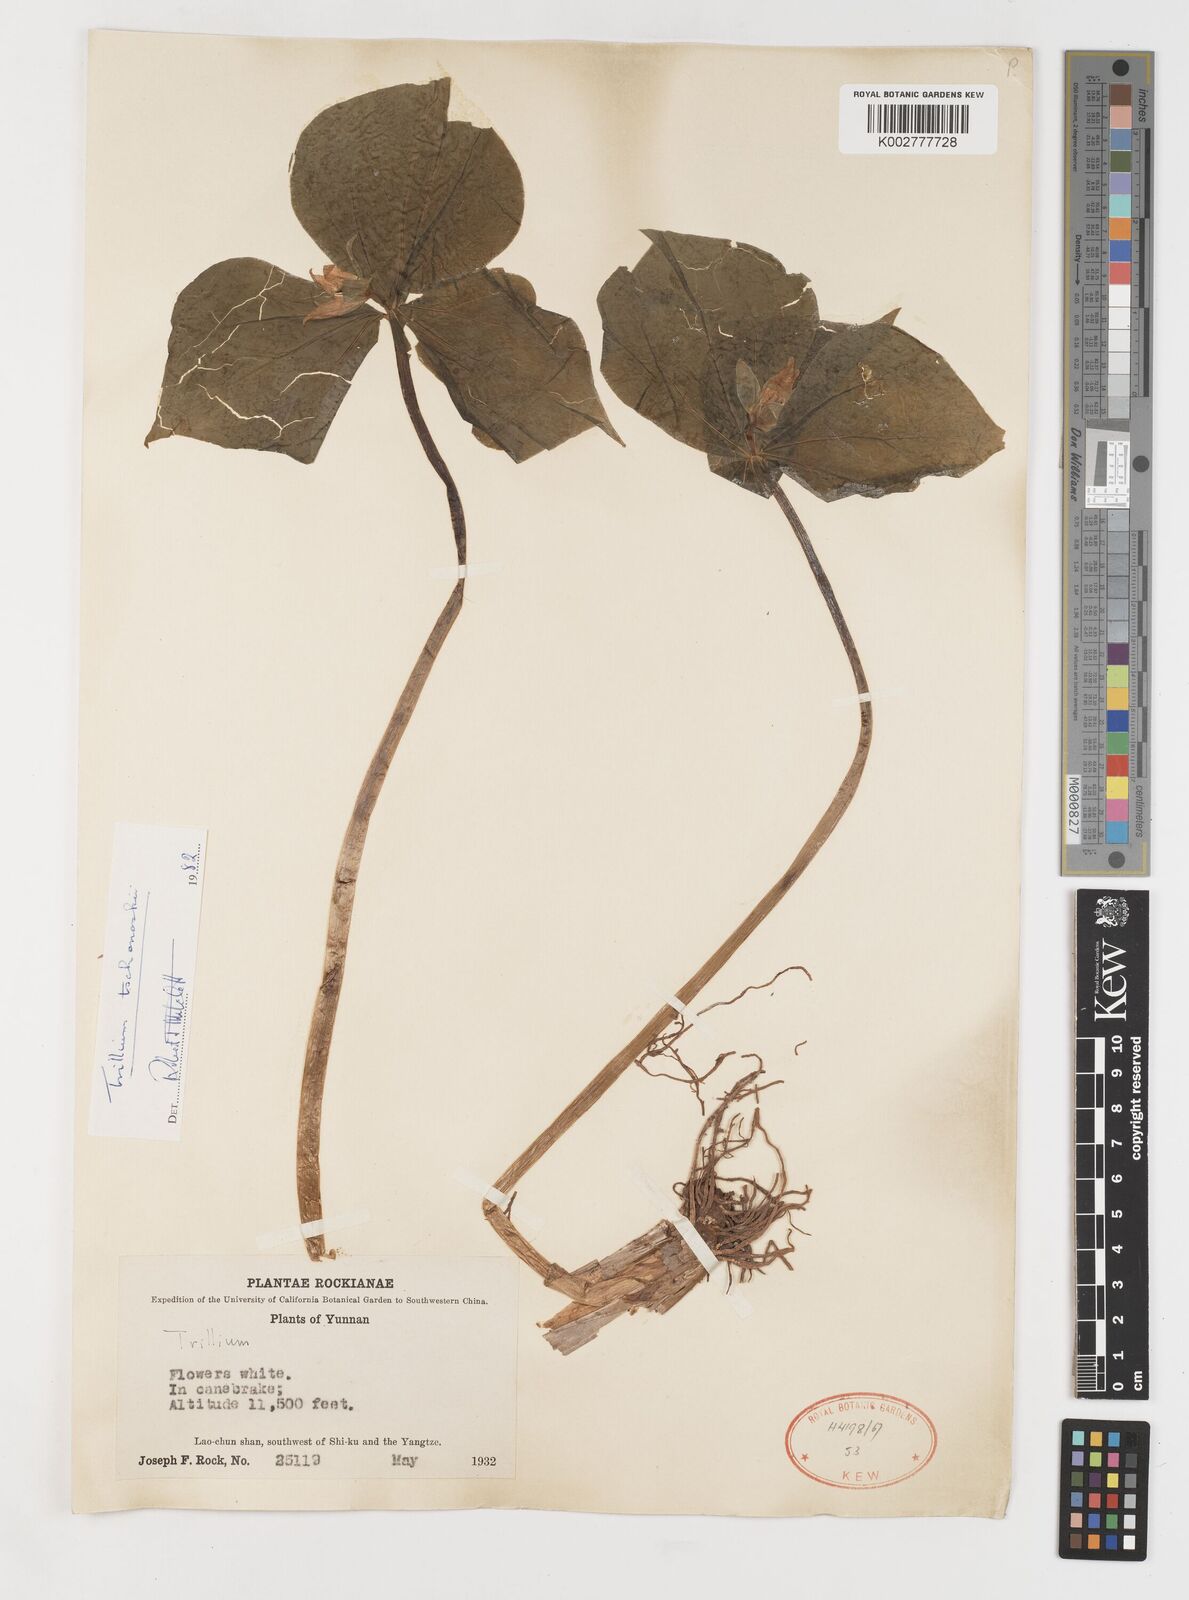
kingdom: Plantae
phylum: Tracheophyta
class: Liliopsida
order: Liliales
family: Melanthiaceae
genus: Trillium
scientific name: Trillium tschonoskii
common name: A pearl on head
